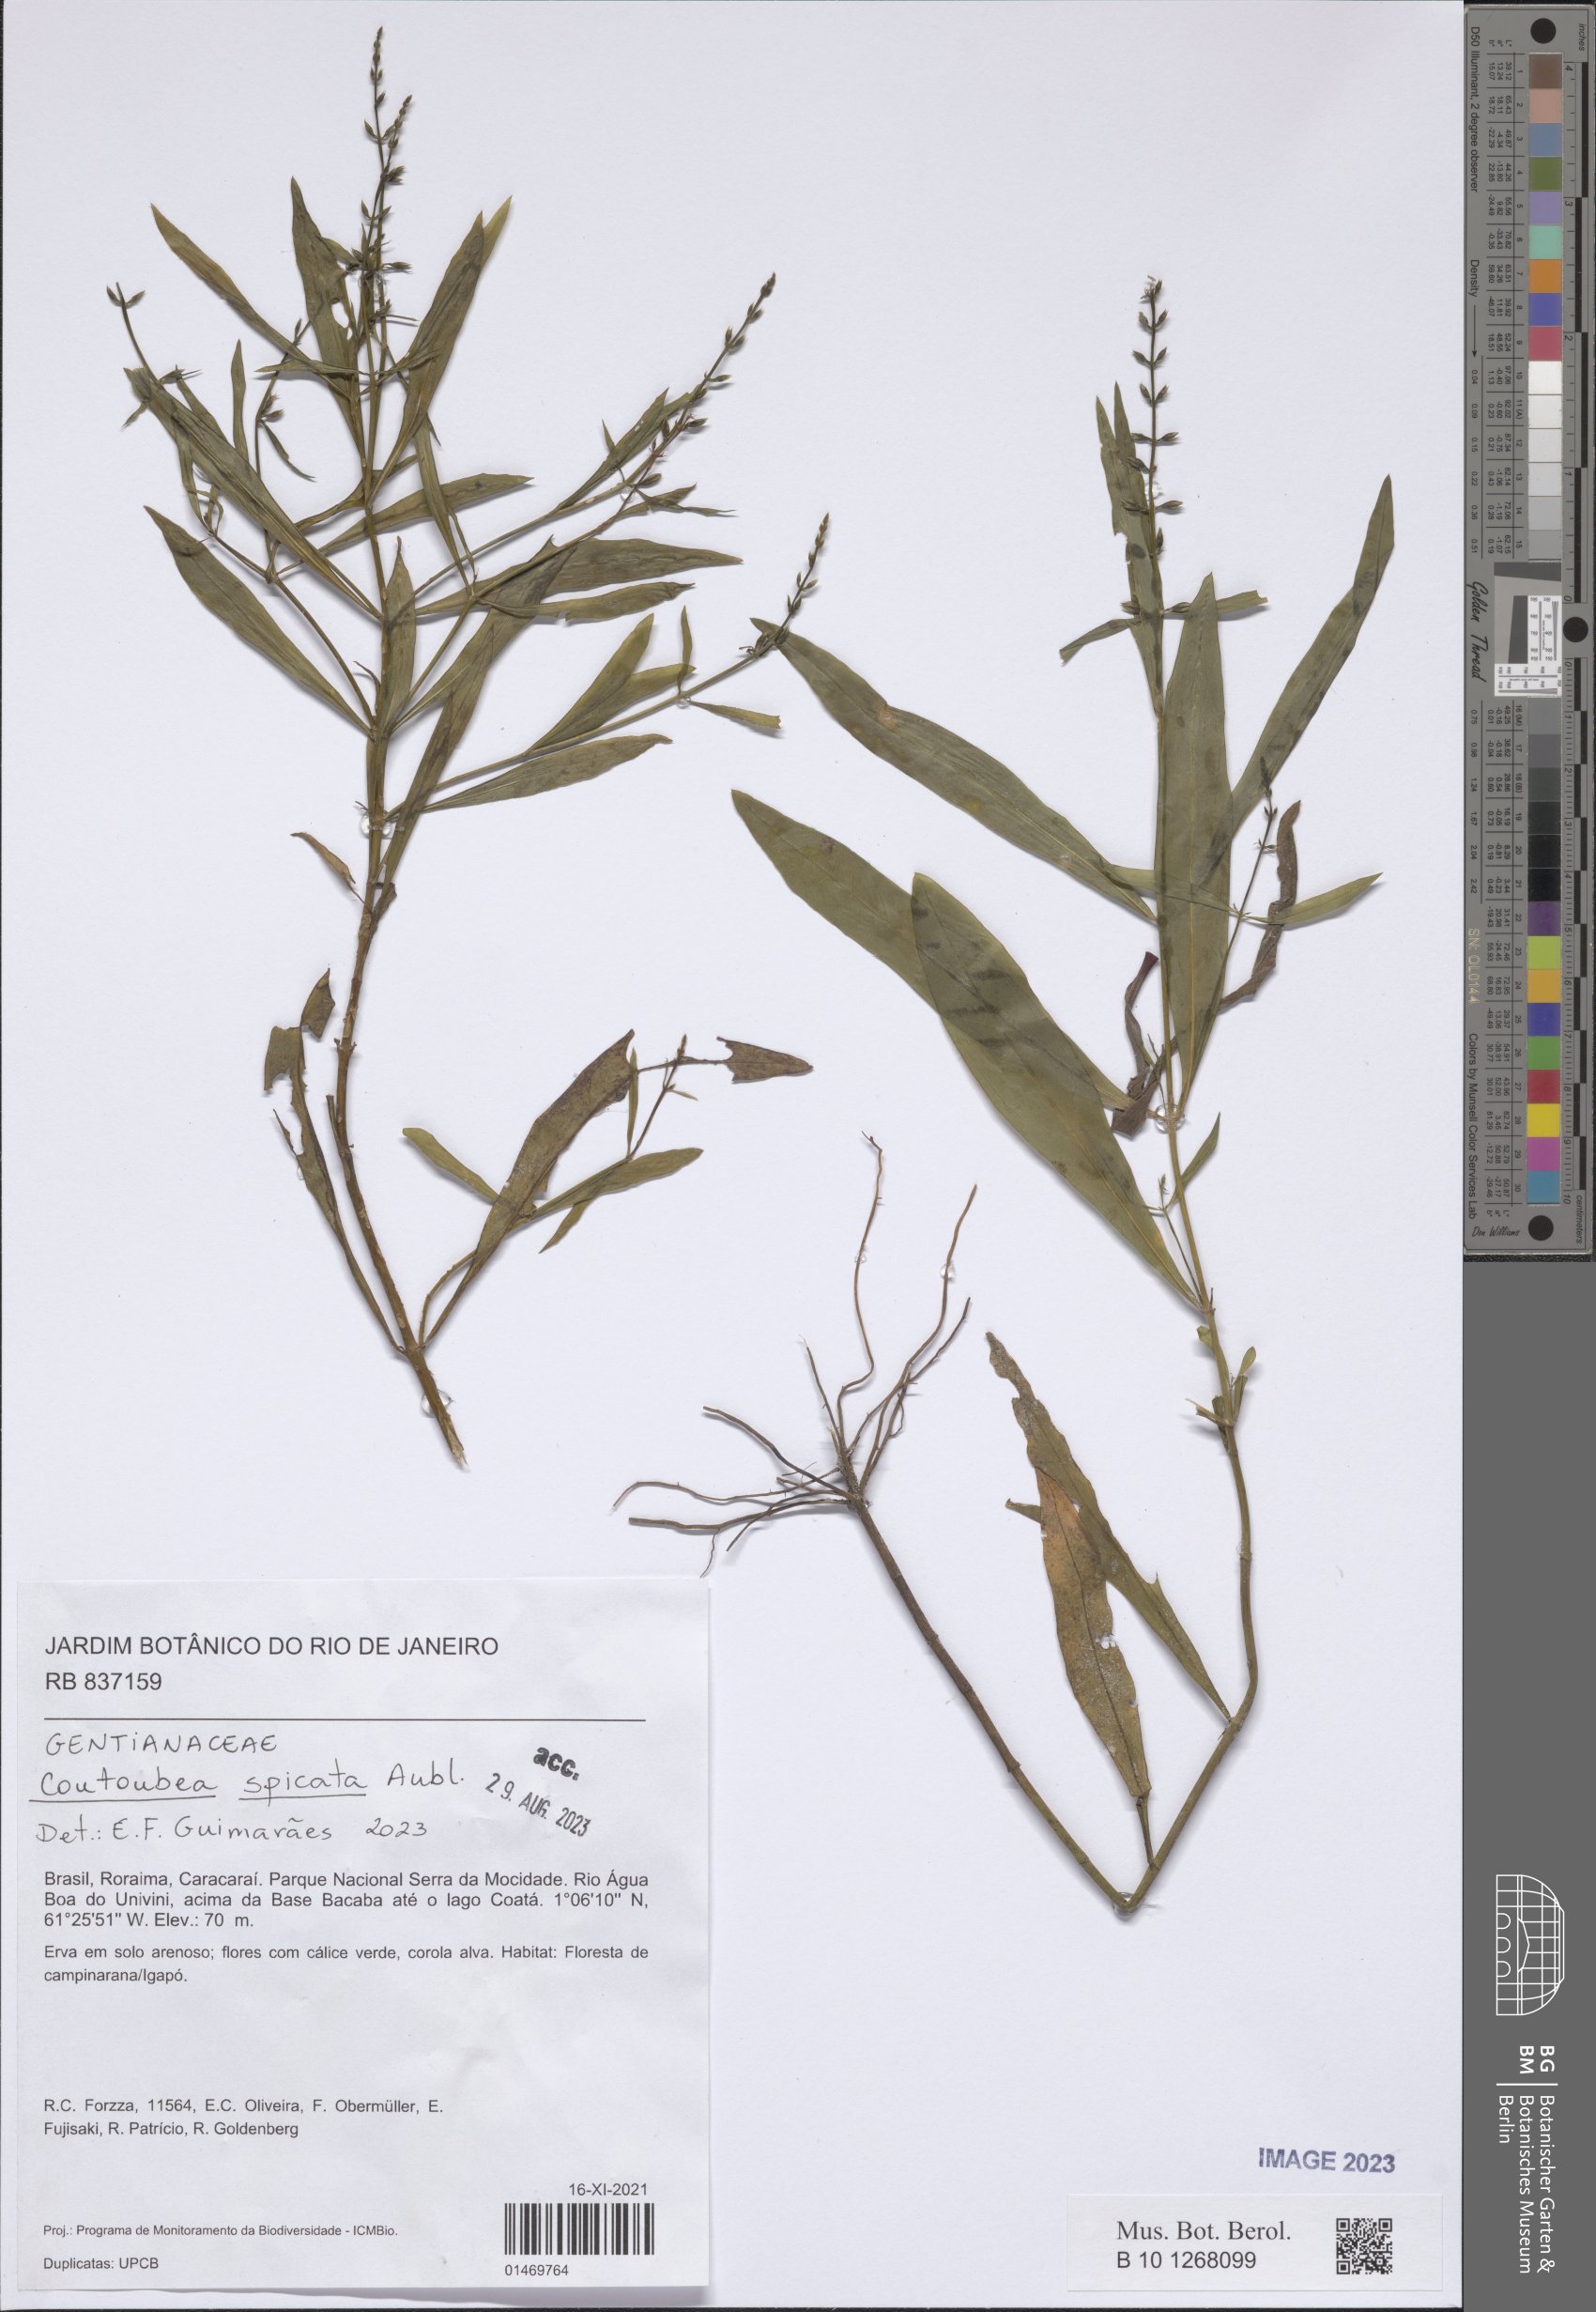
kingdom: Plantae
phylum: Tracheophyta
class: Magnoliopsida
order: Gentianales
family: Gentianaceae
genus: Coutoubea
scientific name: Coutoubea spicata
